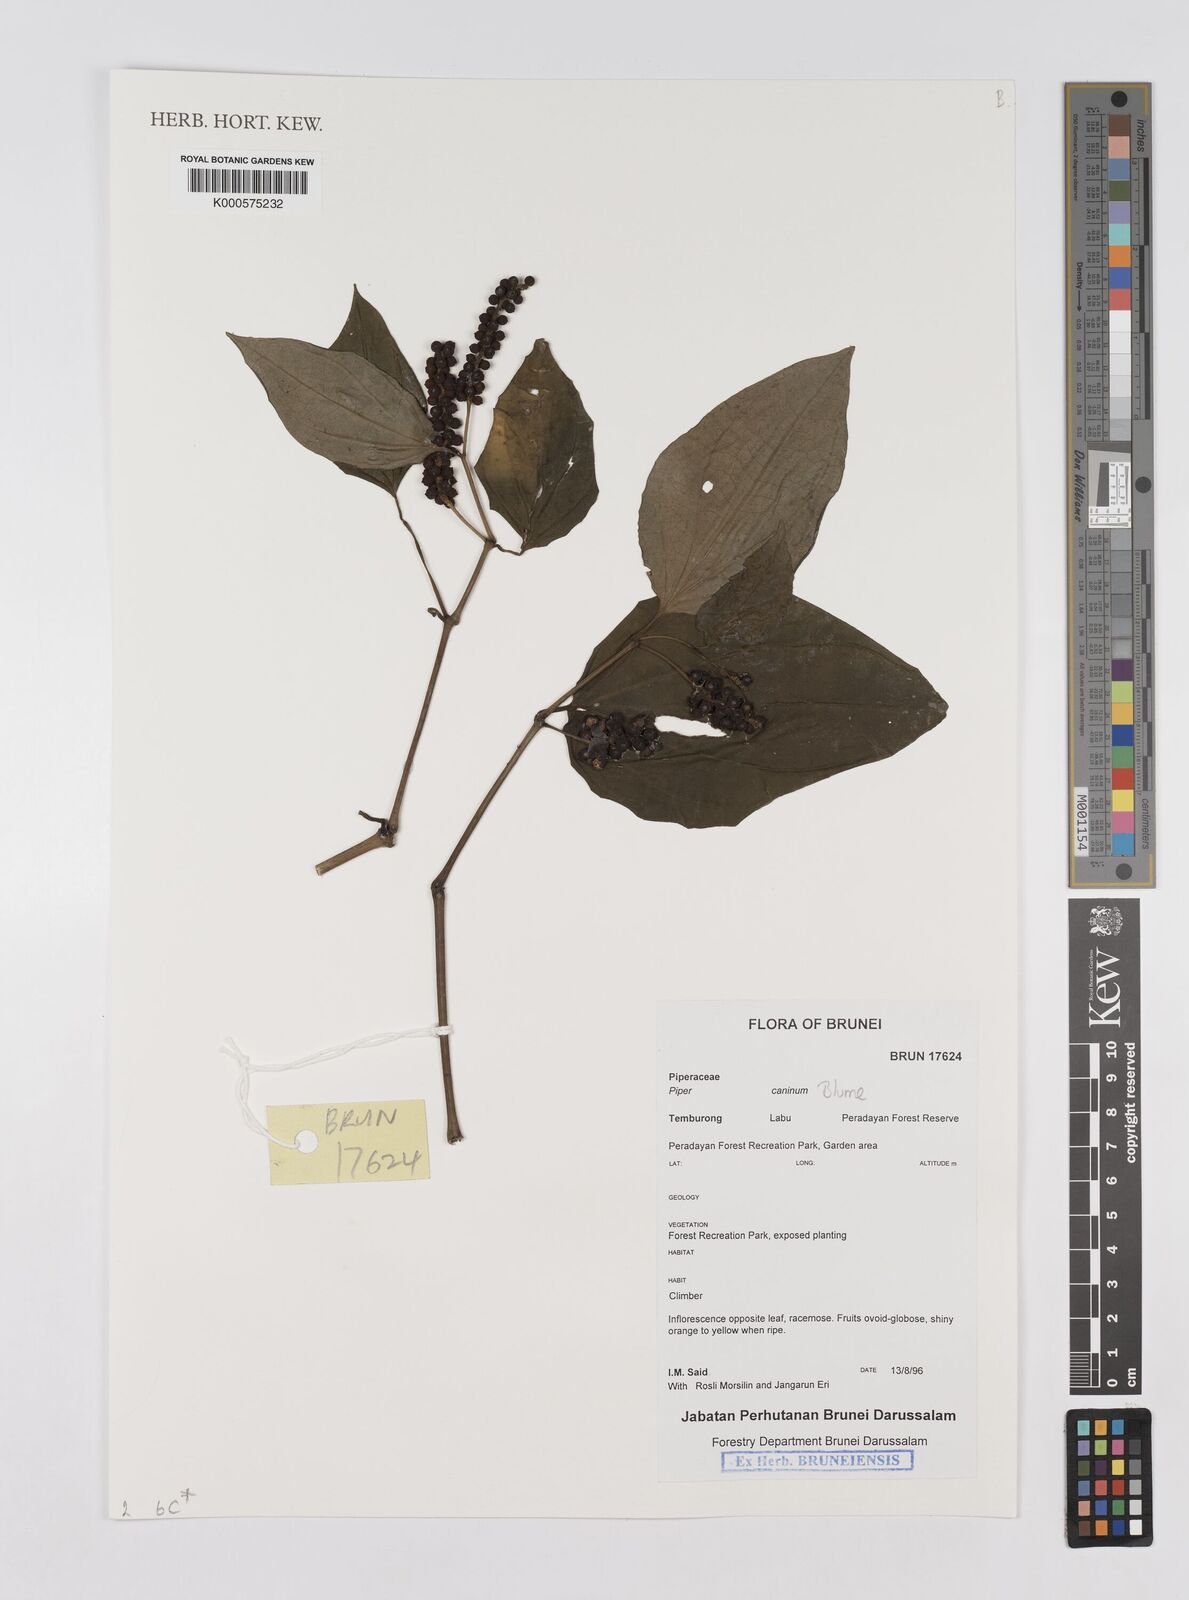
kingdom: Plantae
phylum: Tracheophyta
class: Magnoliopsida
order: Piperales
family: Piperaceae
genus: Piper
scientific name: Piper lanatum
